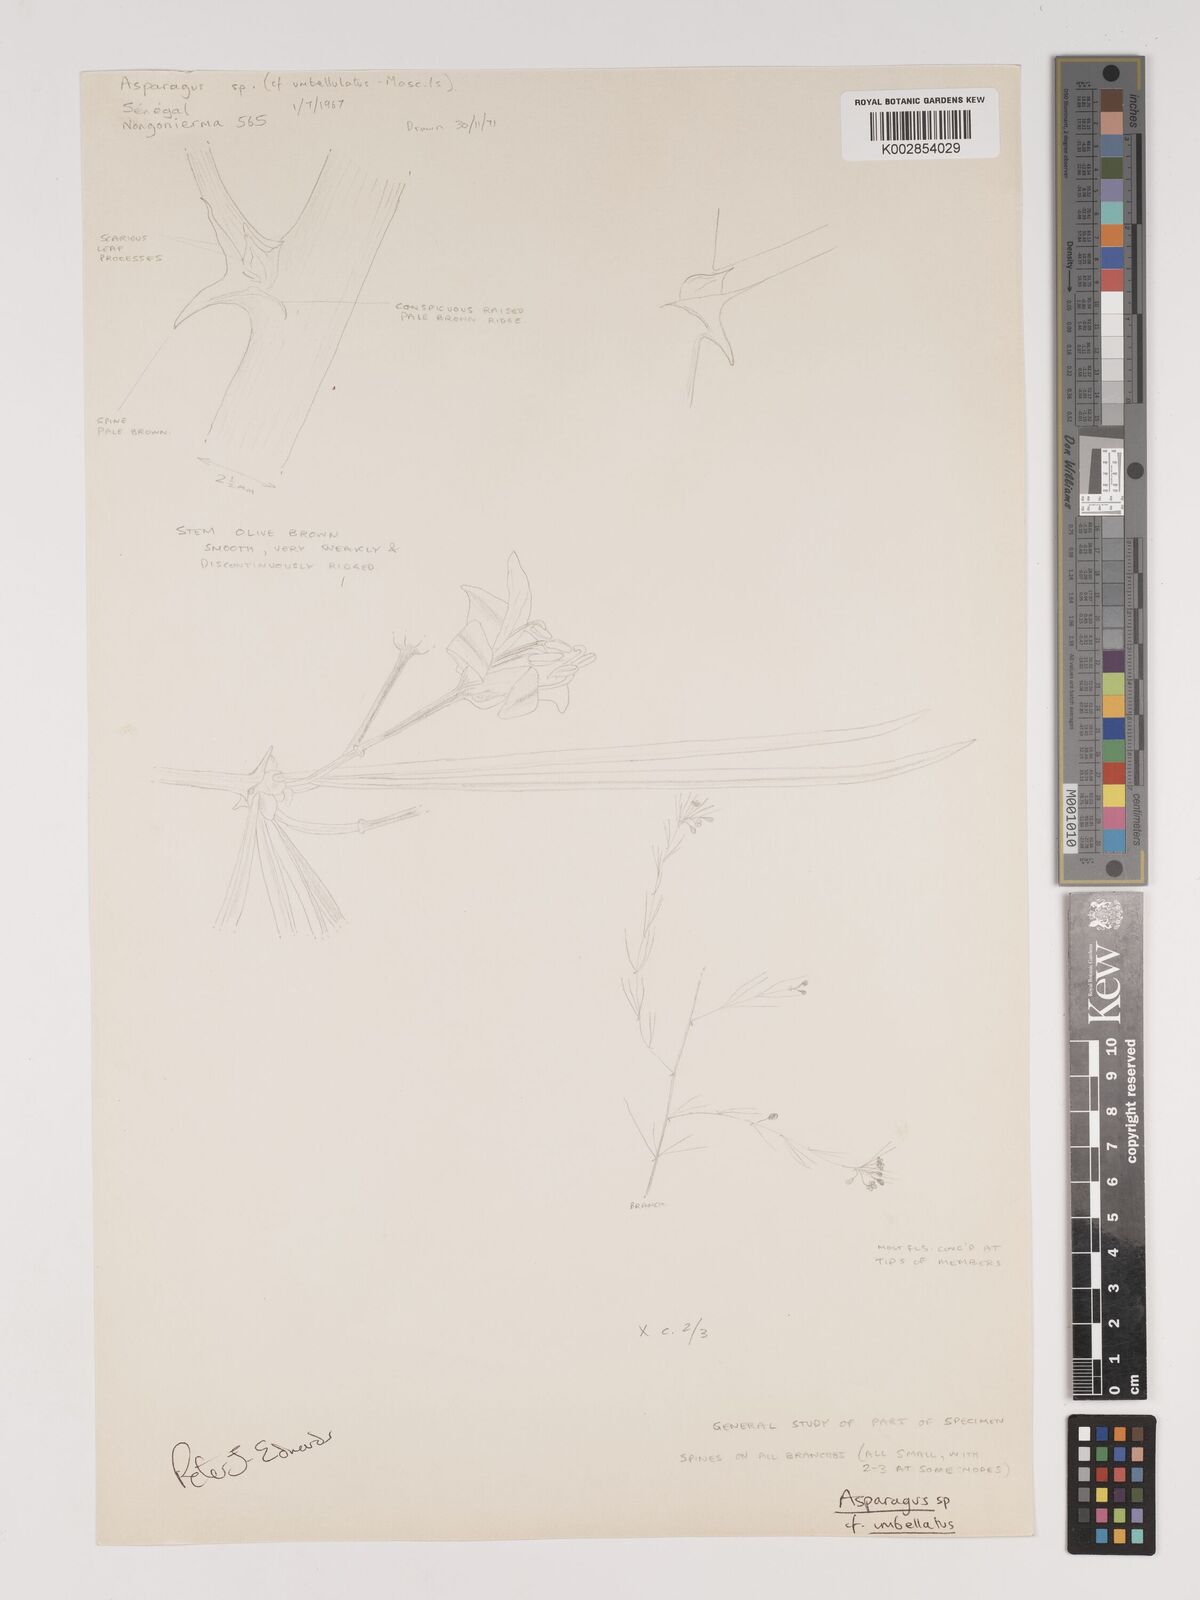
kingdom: Plantae
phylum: Tracheophyta
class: Liliopsida
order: Asparagales
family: Asparagaceae
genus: Asparagus
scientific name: Asparagus
